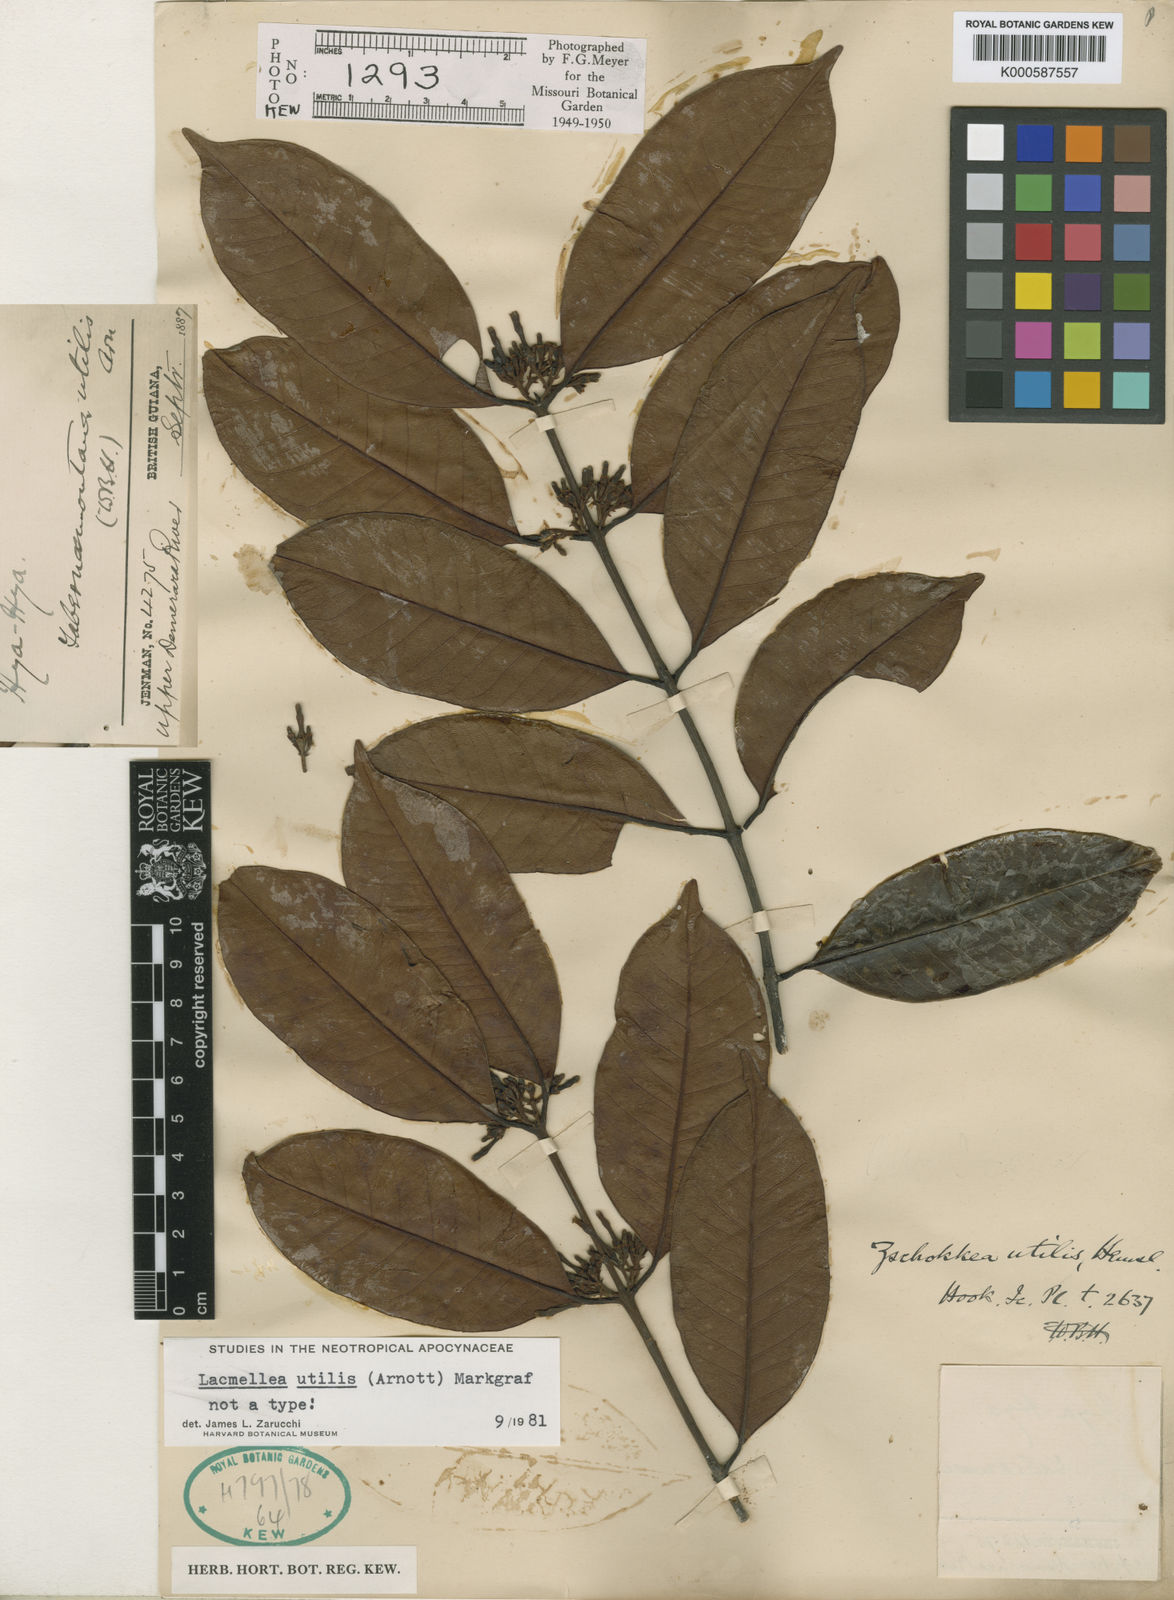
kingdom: Plantae
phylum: Tracheophyta
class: Magnoliopsida
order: Gentianales
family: Apocynaceae
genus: Lacmellea
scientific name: Lacmellea utilis
